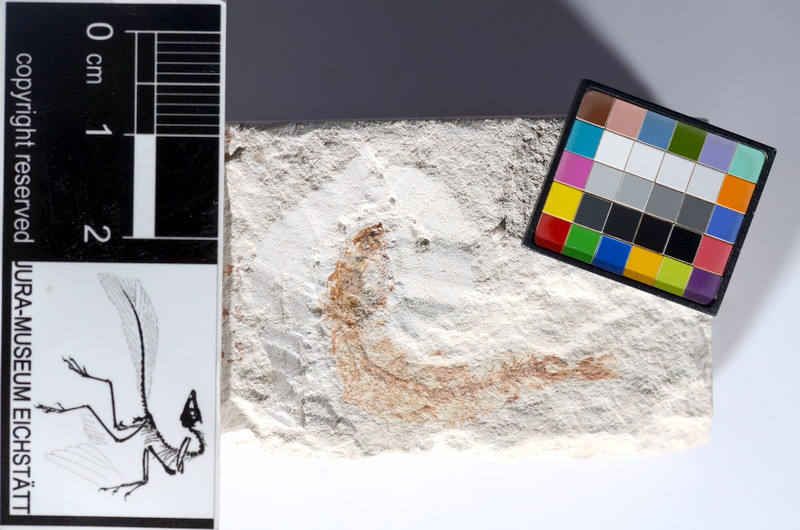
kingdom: Animalia
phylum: Chordata
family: Ascalaboidae
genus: Tharsis
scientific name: Tharsis dubius
